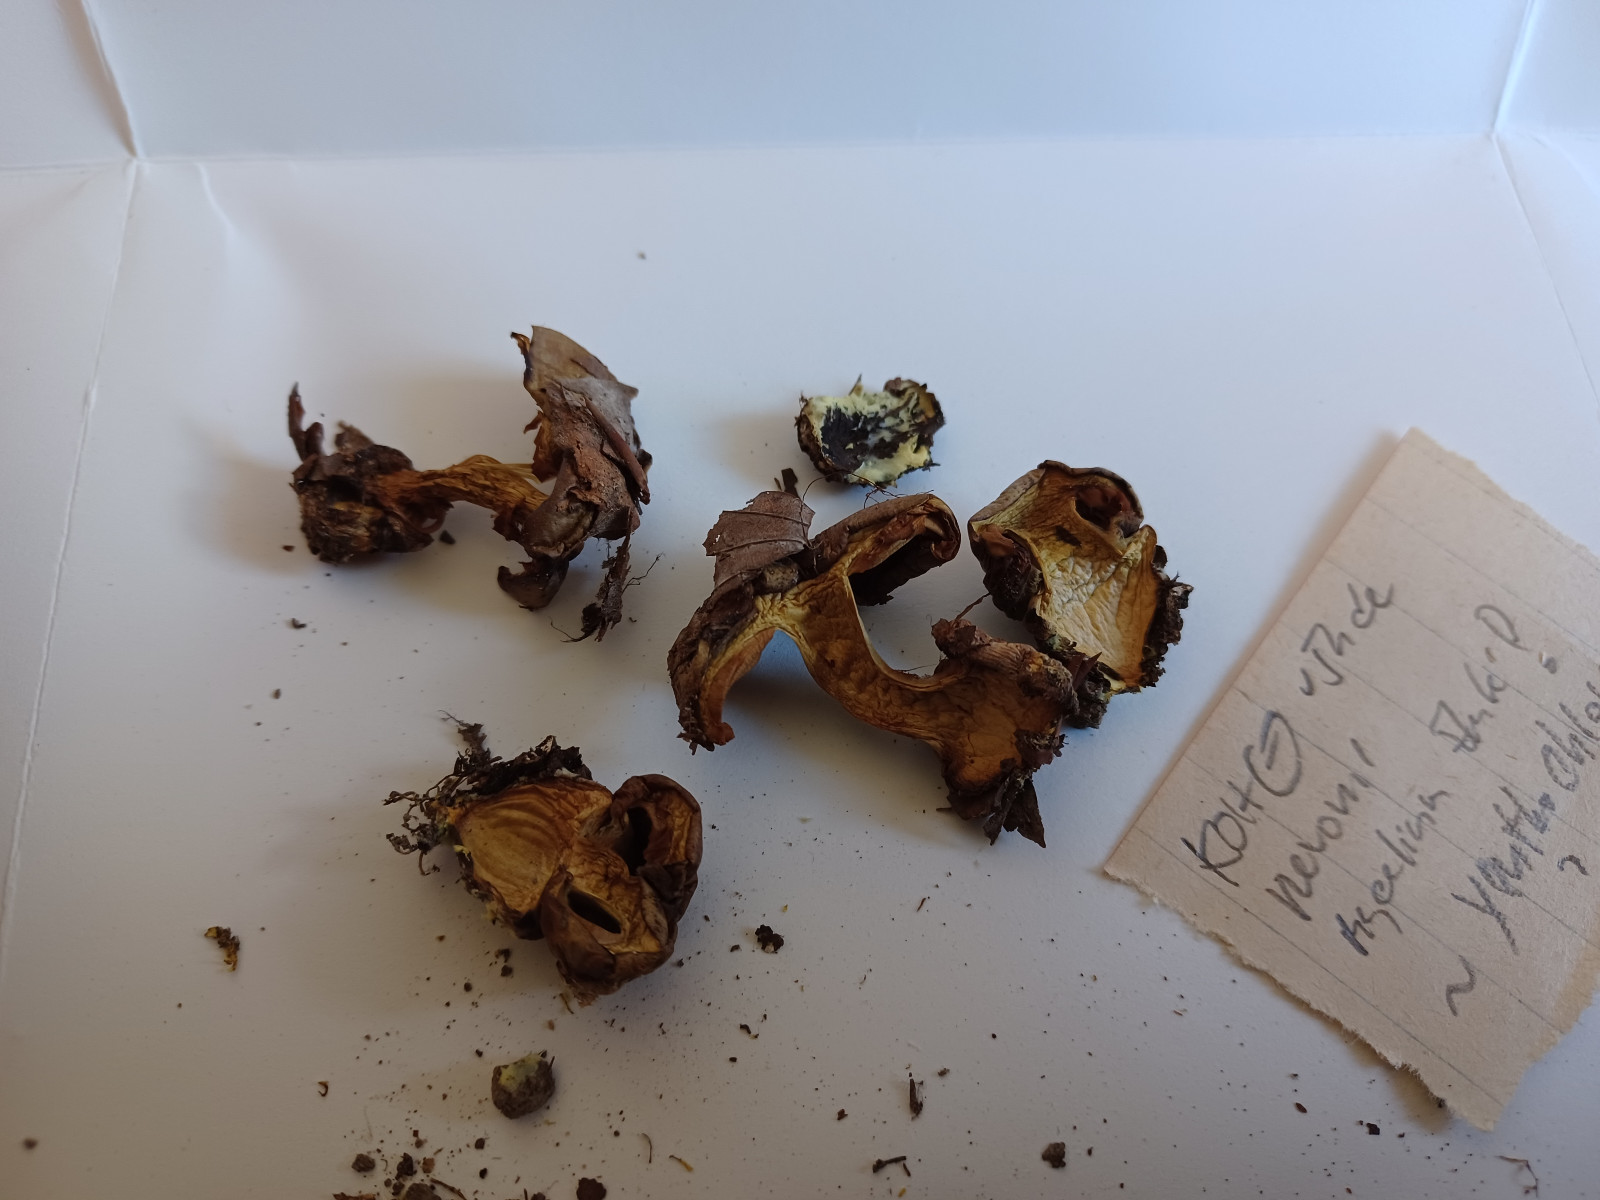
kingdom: Fungi
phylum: Basidiomycota
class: Agaricomycetes
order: Agaricales
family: Cortinariaceae
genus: Calonarius
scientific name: Calonarius citrinus
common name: citrongul slørhat
